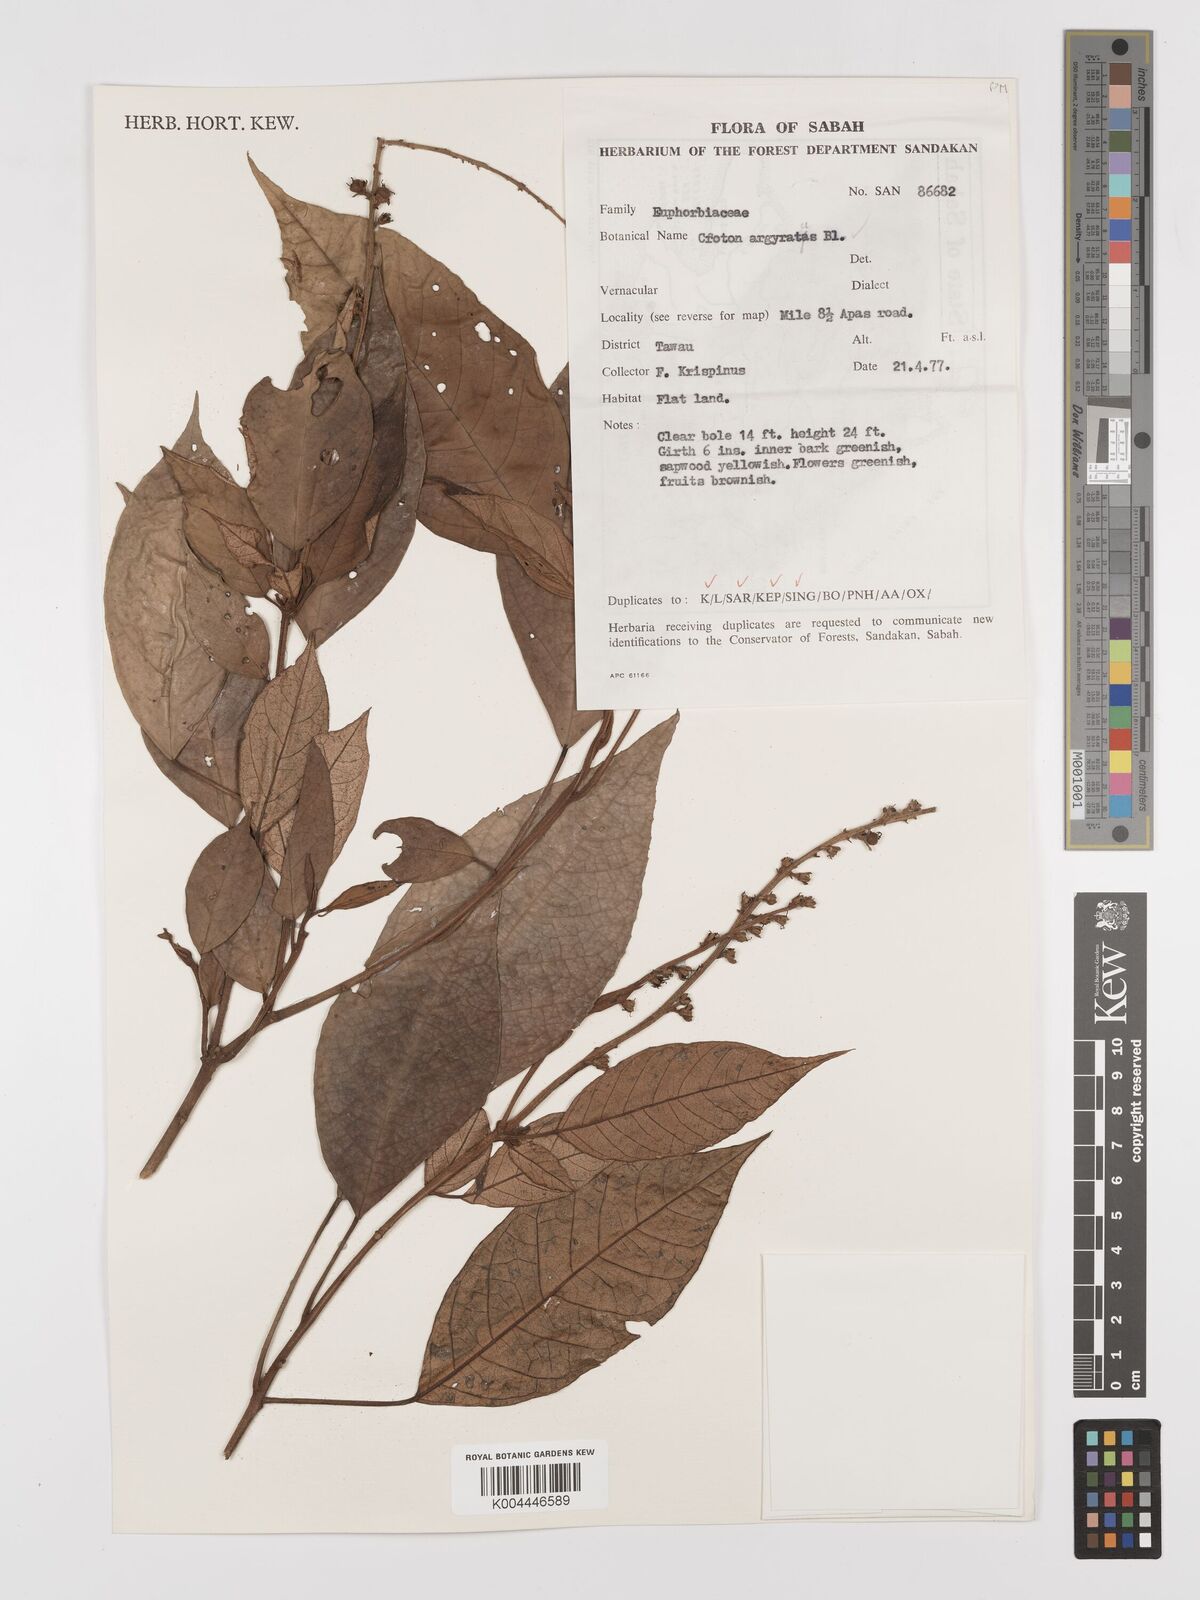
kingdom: Plantae
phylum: Tracheophyta
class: Magnoliopsida
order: Malpighiales
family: Euphorbiaceae
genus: Croton
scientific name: Croton argyratus
